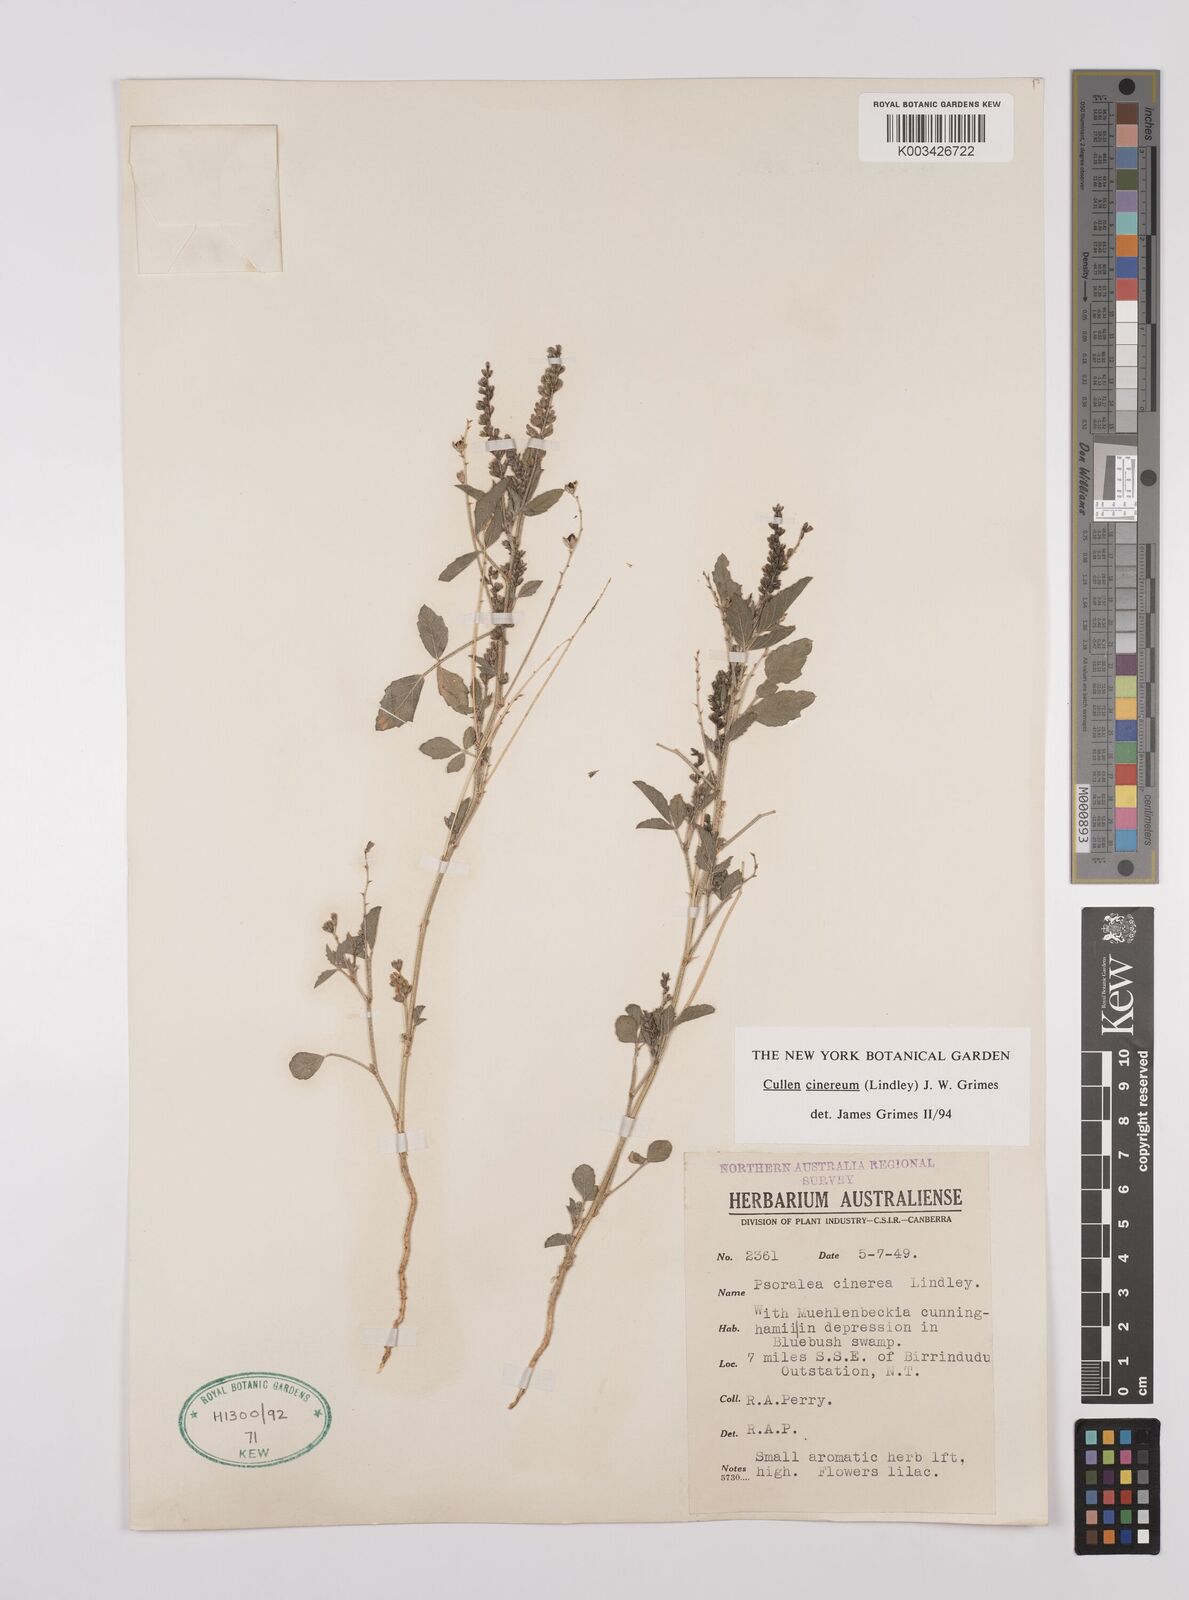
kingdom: Plantae
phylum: Tracheophyta
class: Magnoliopsida
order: Fabales
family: Fabaceae
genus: Cullen
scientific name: Cullen cinereum
